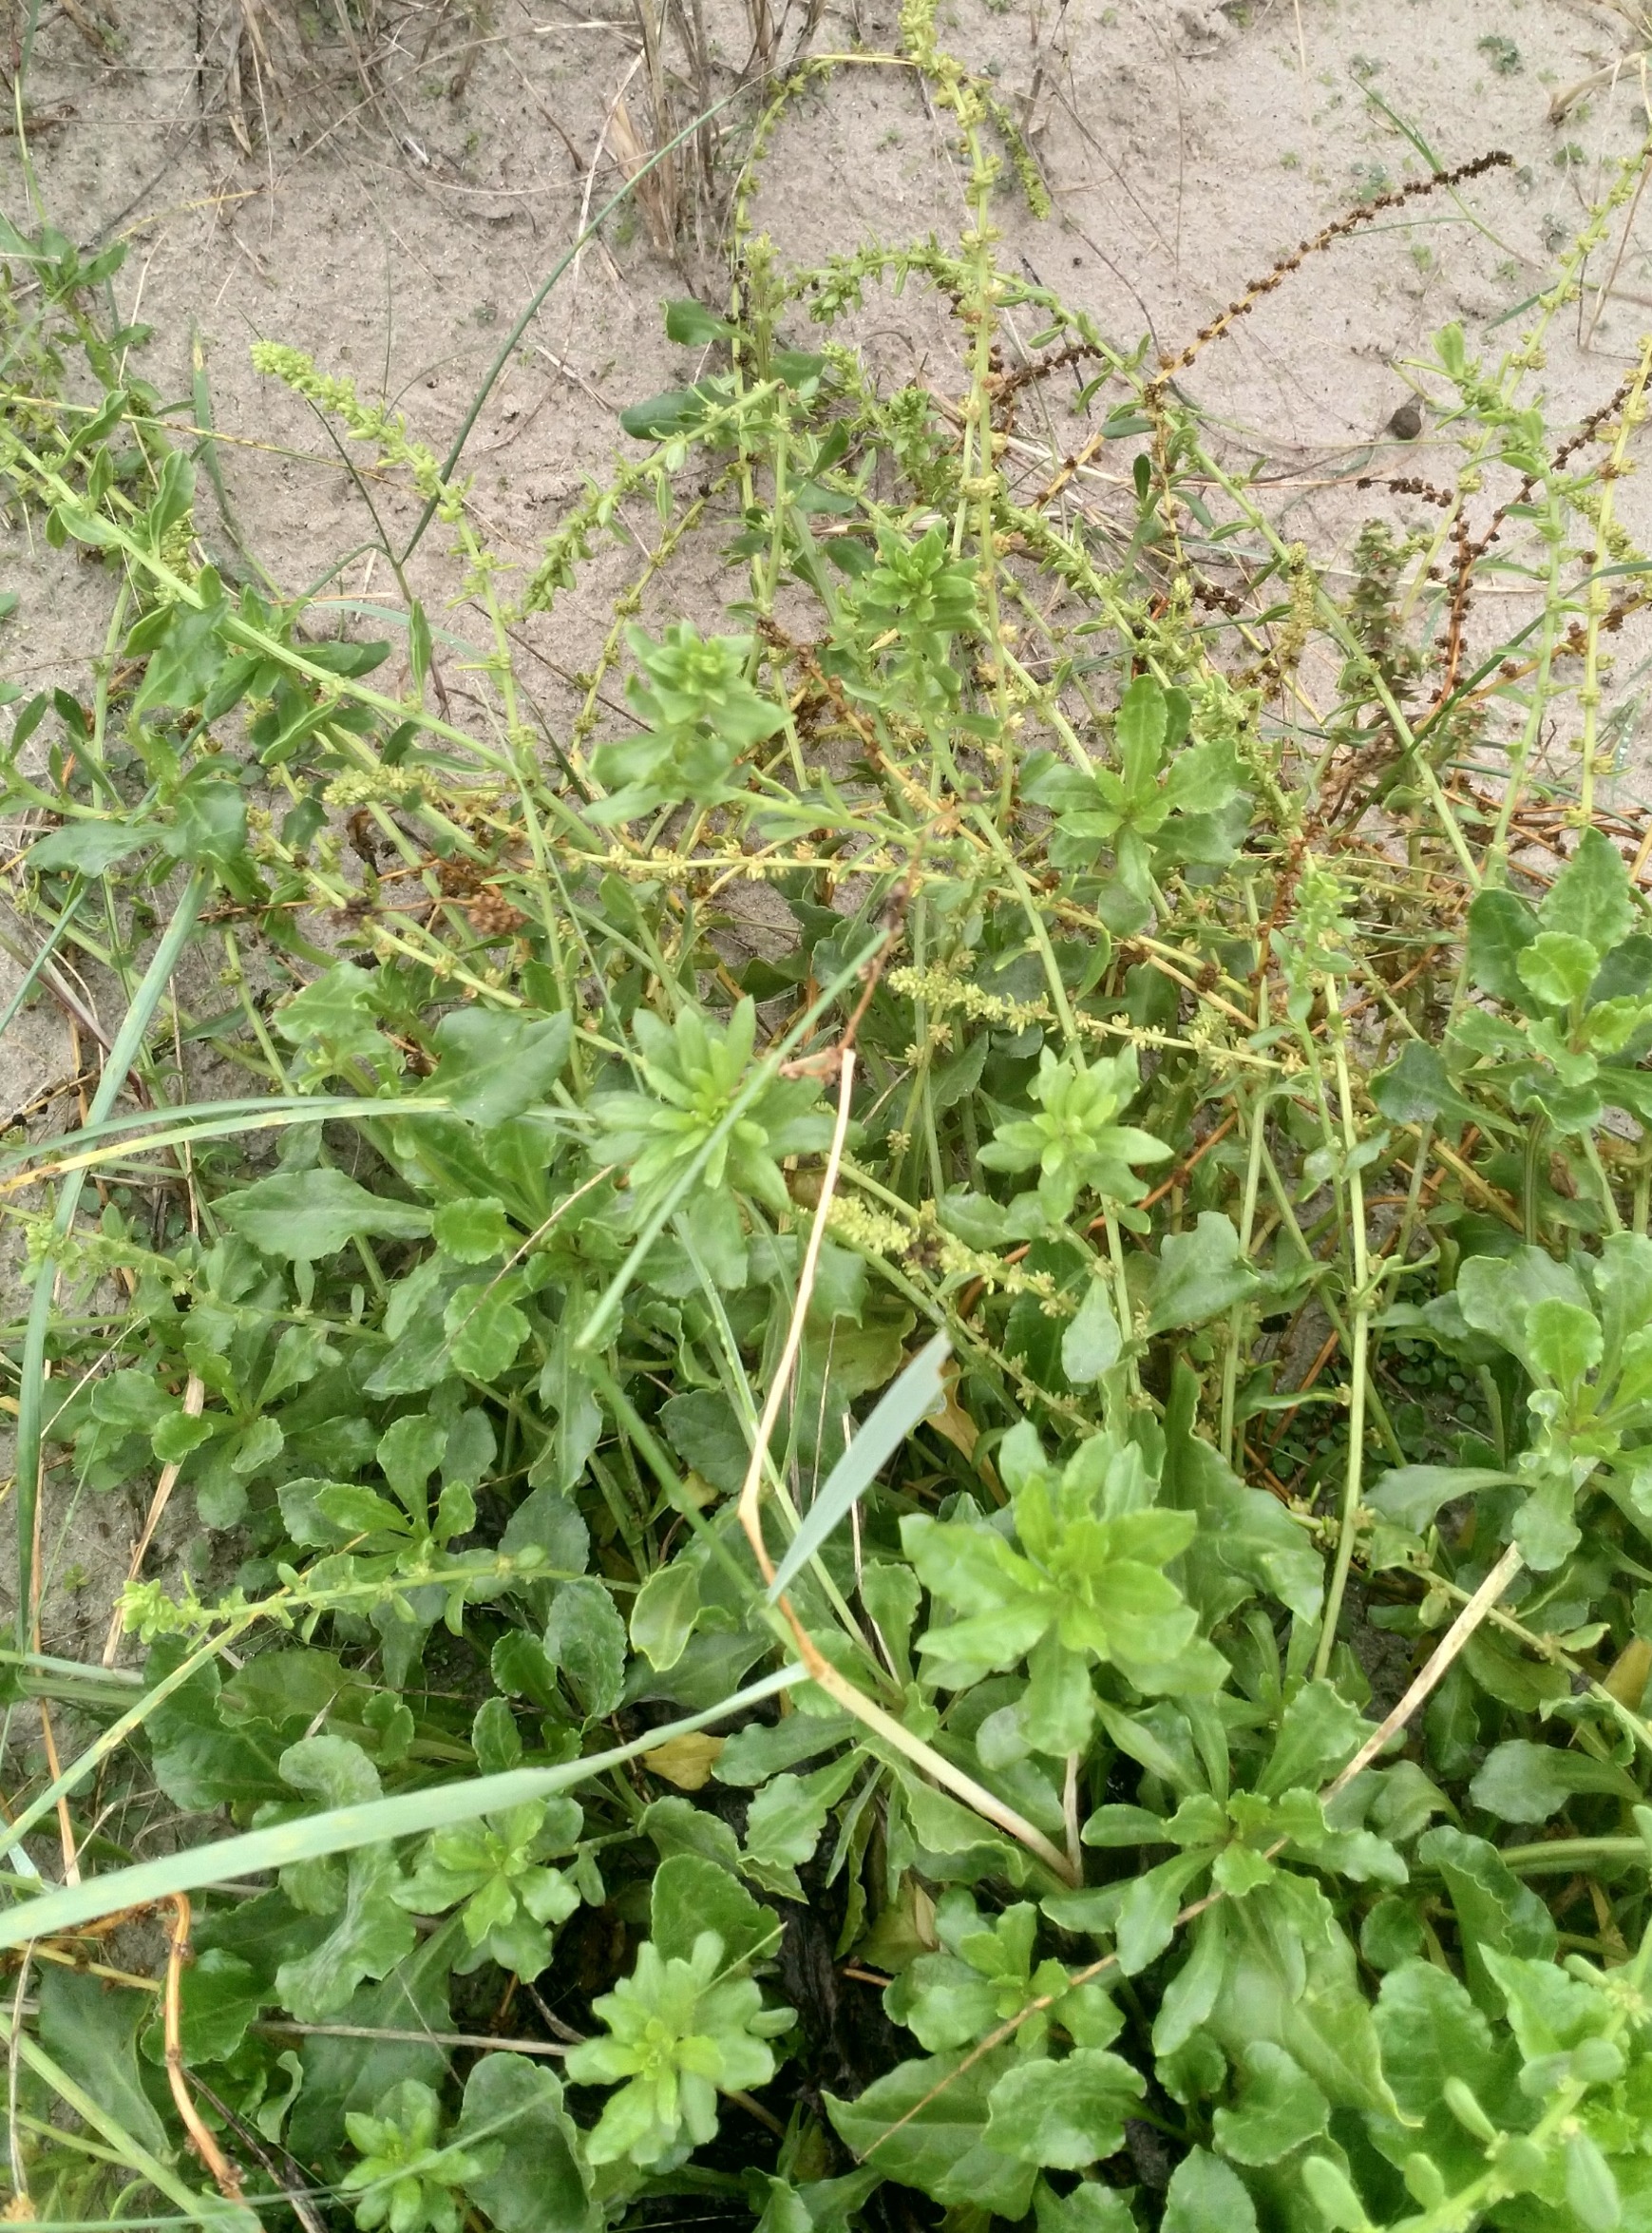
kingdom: Plantae
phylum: Tracheophyta
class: Magnoliopsida
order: Caryophyllales
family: Amaranthaceae
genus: Beta
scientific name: Beta maritima
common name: Strand-bede
